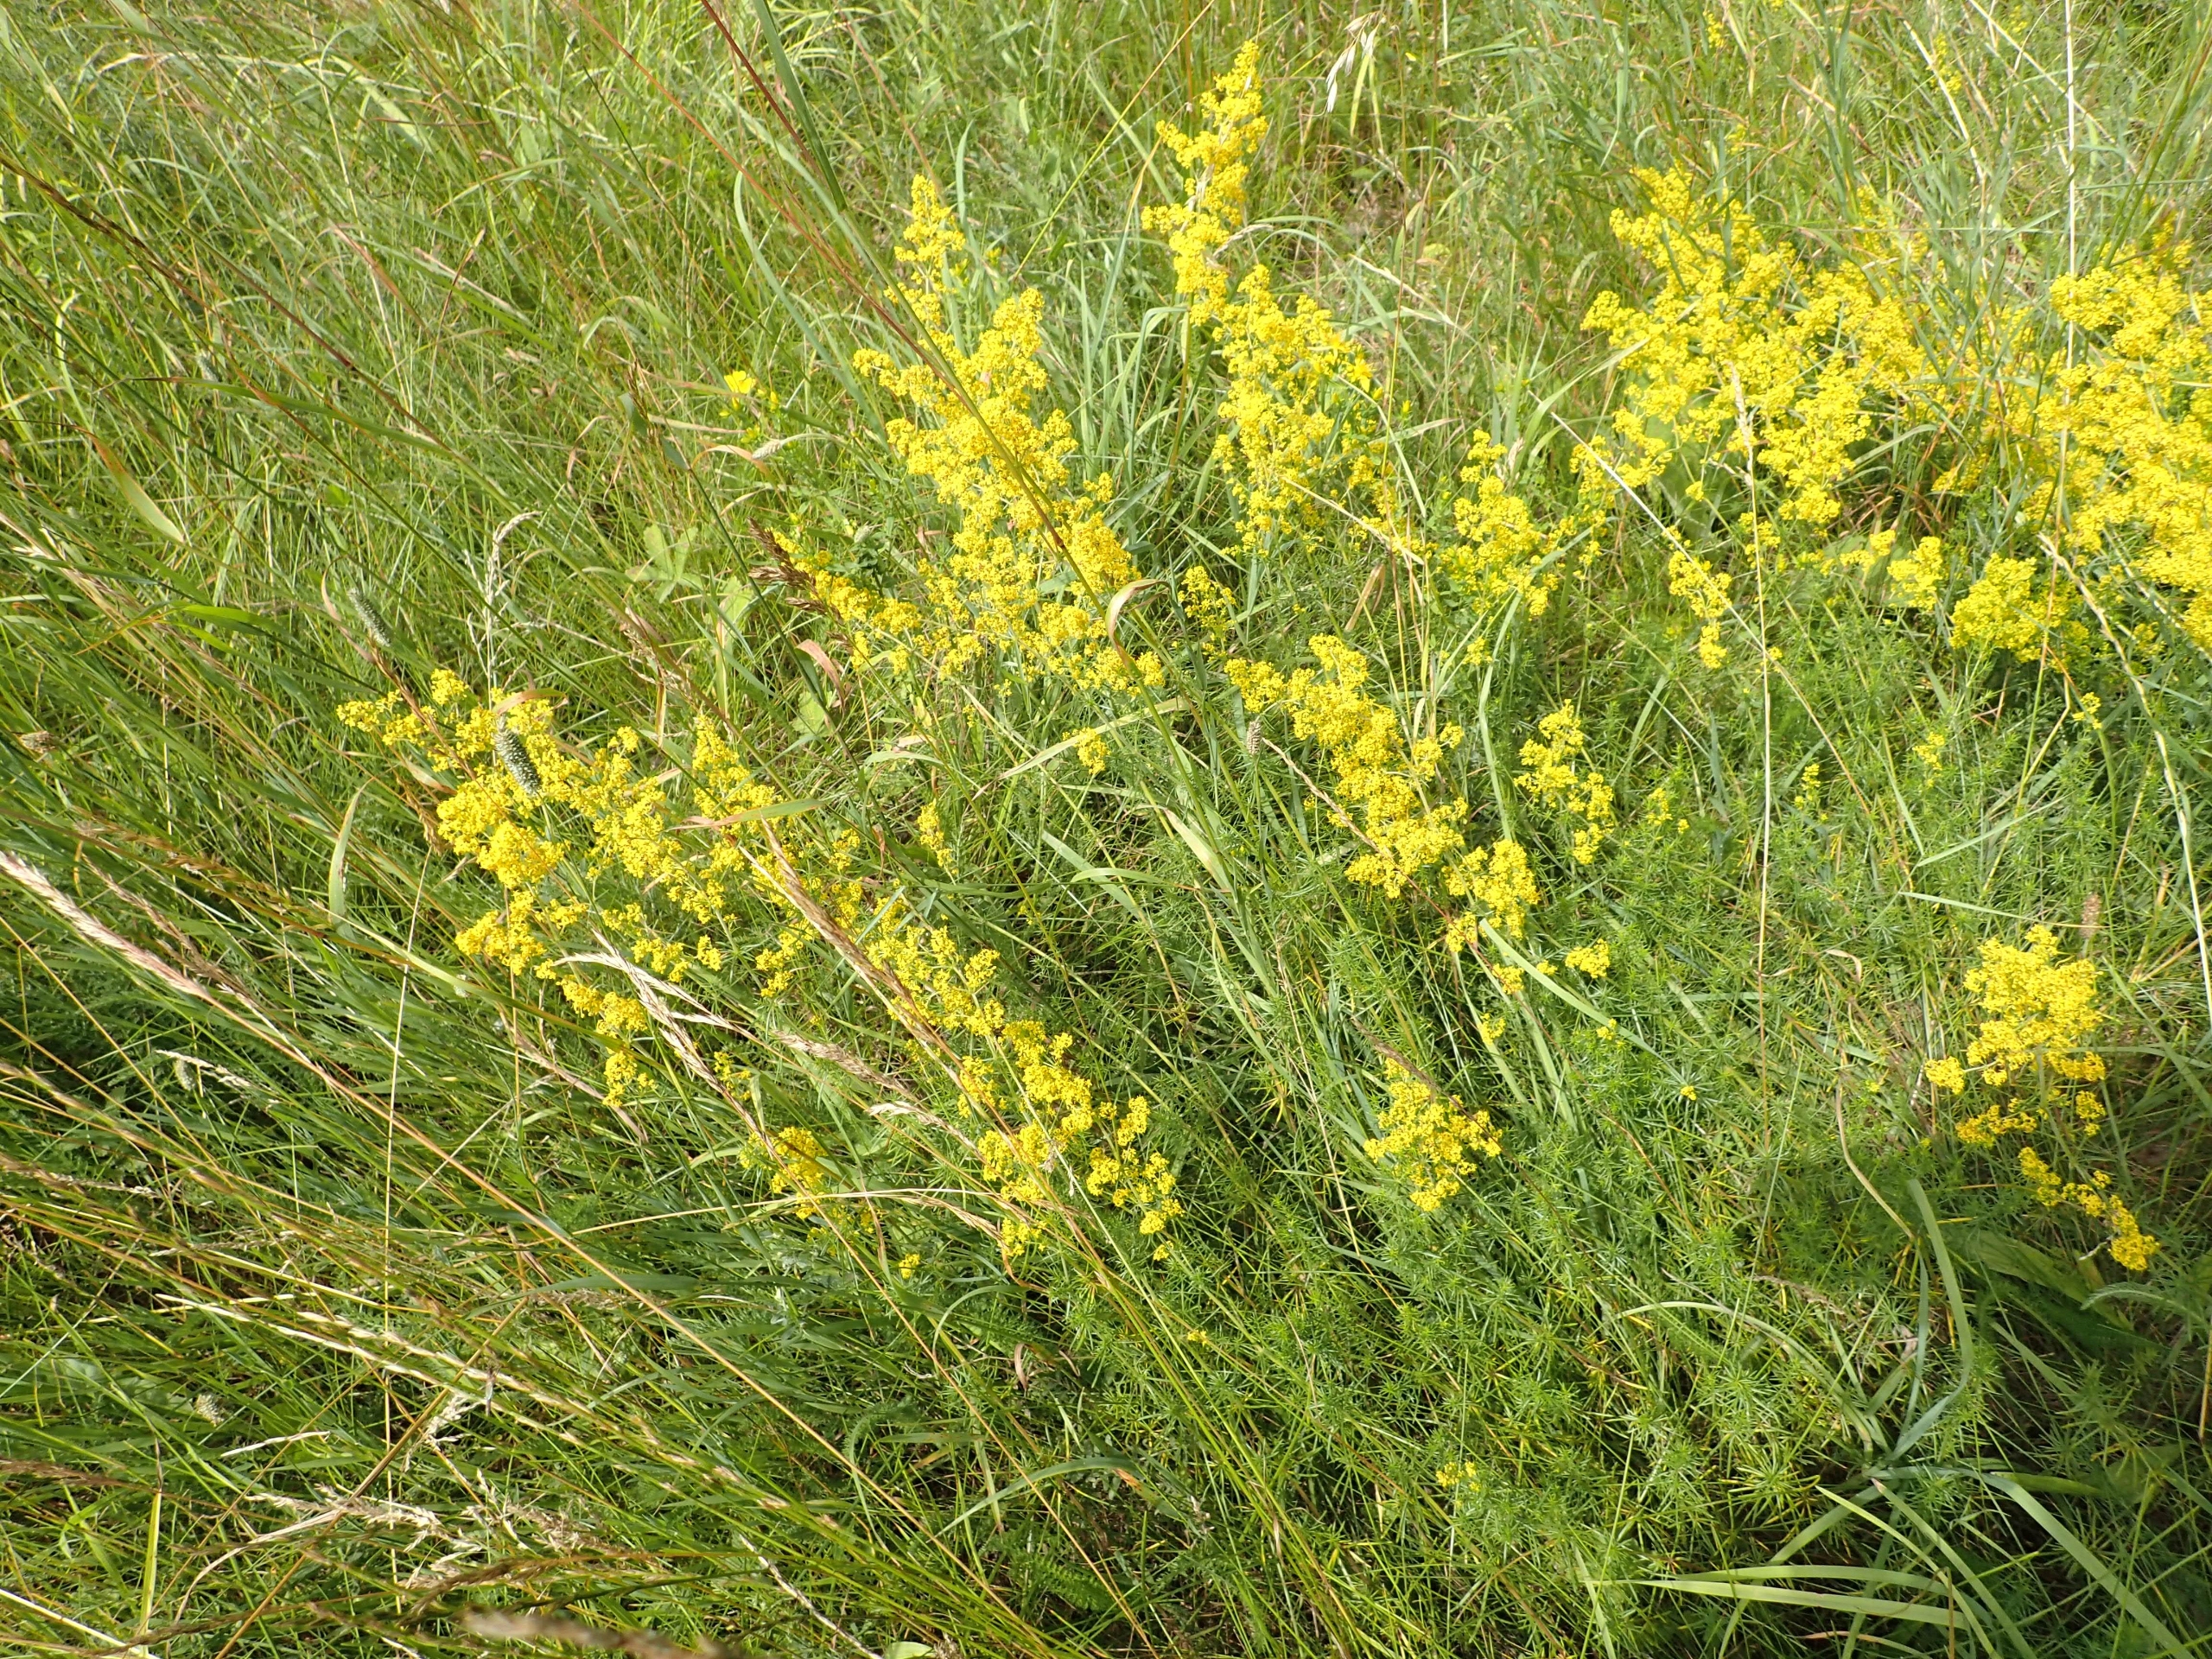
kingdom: Plantae
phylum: Tracheophyta
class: Magnoliopsida
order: Gentianales
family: Rubiaceae
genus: Galium
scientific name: Galium verum
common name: Gul snerre
